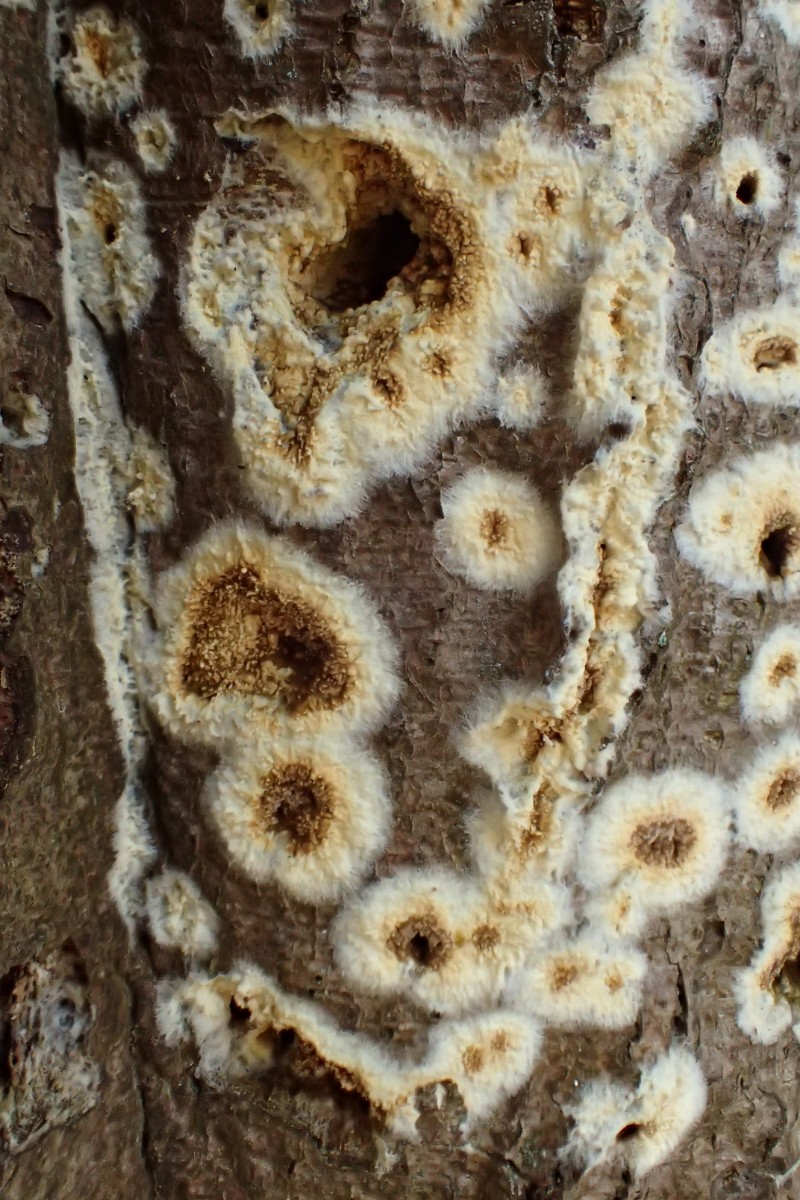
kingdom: Fungi
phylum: Basidiomycota
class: Agaricomycetes
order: Boletales
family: Coniophoraceae
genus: Coniophora
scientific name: Coniophora puteana
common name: gul tømmersvamp
